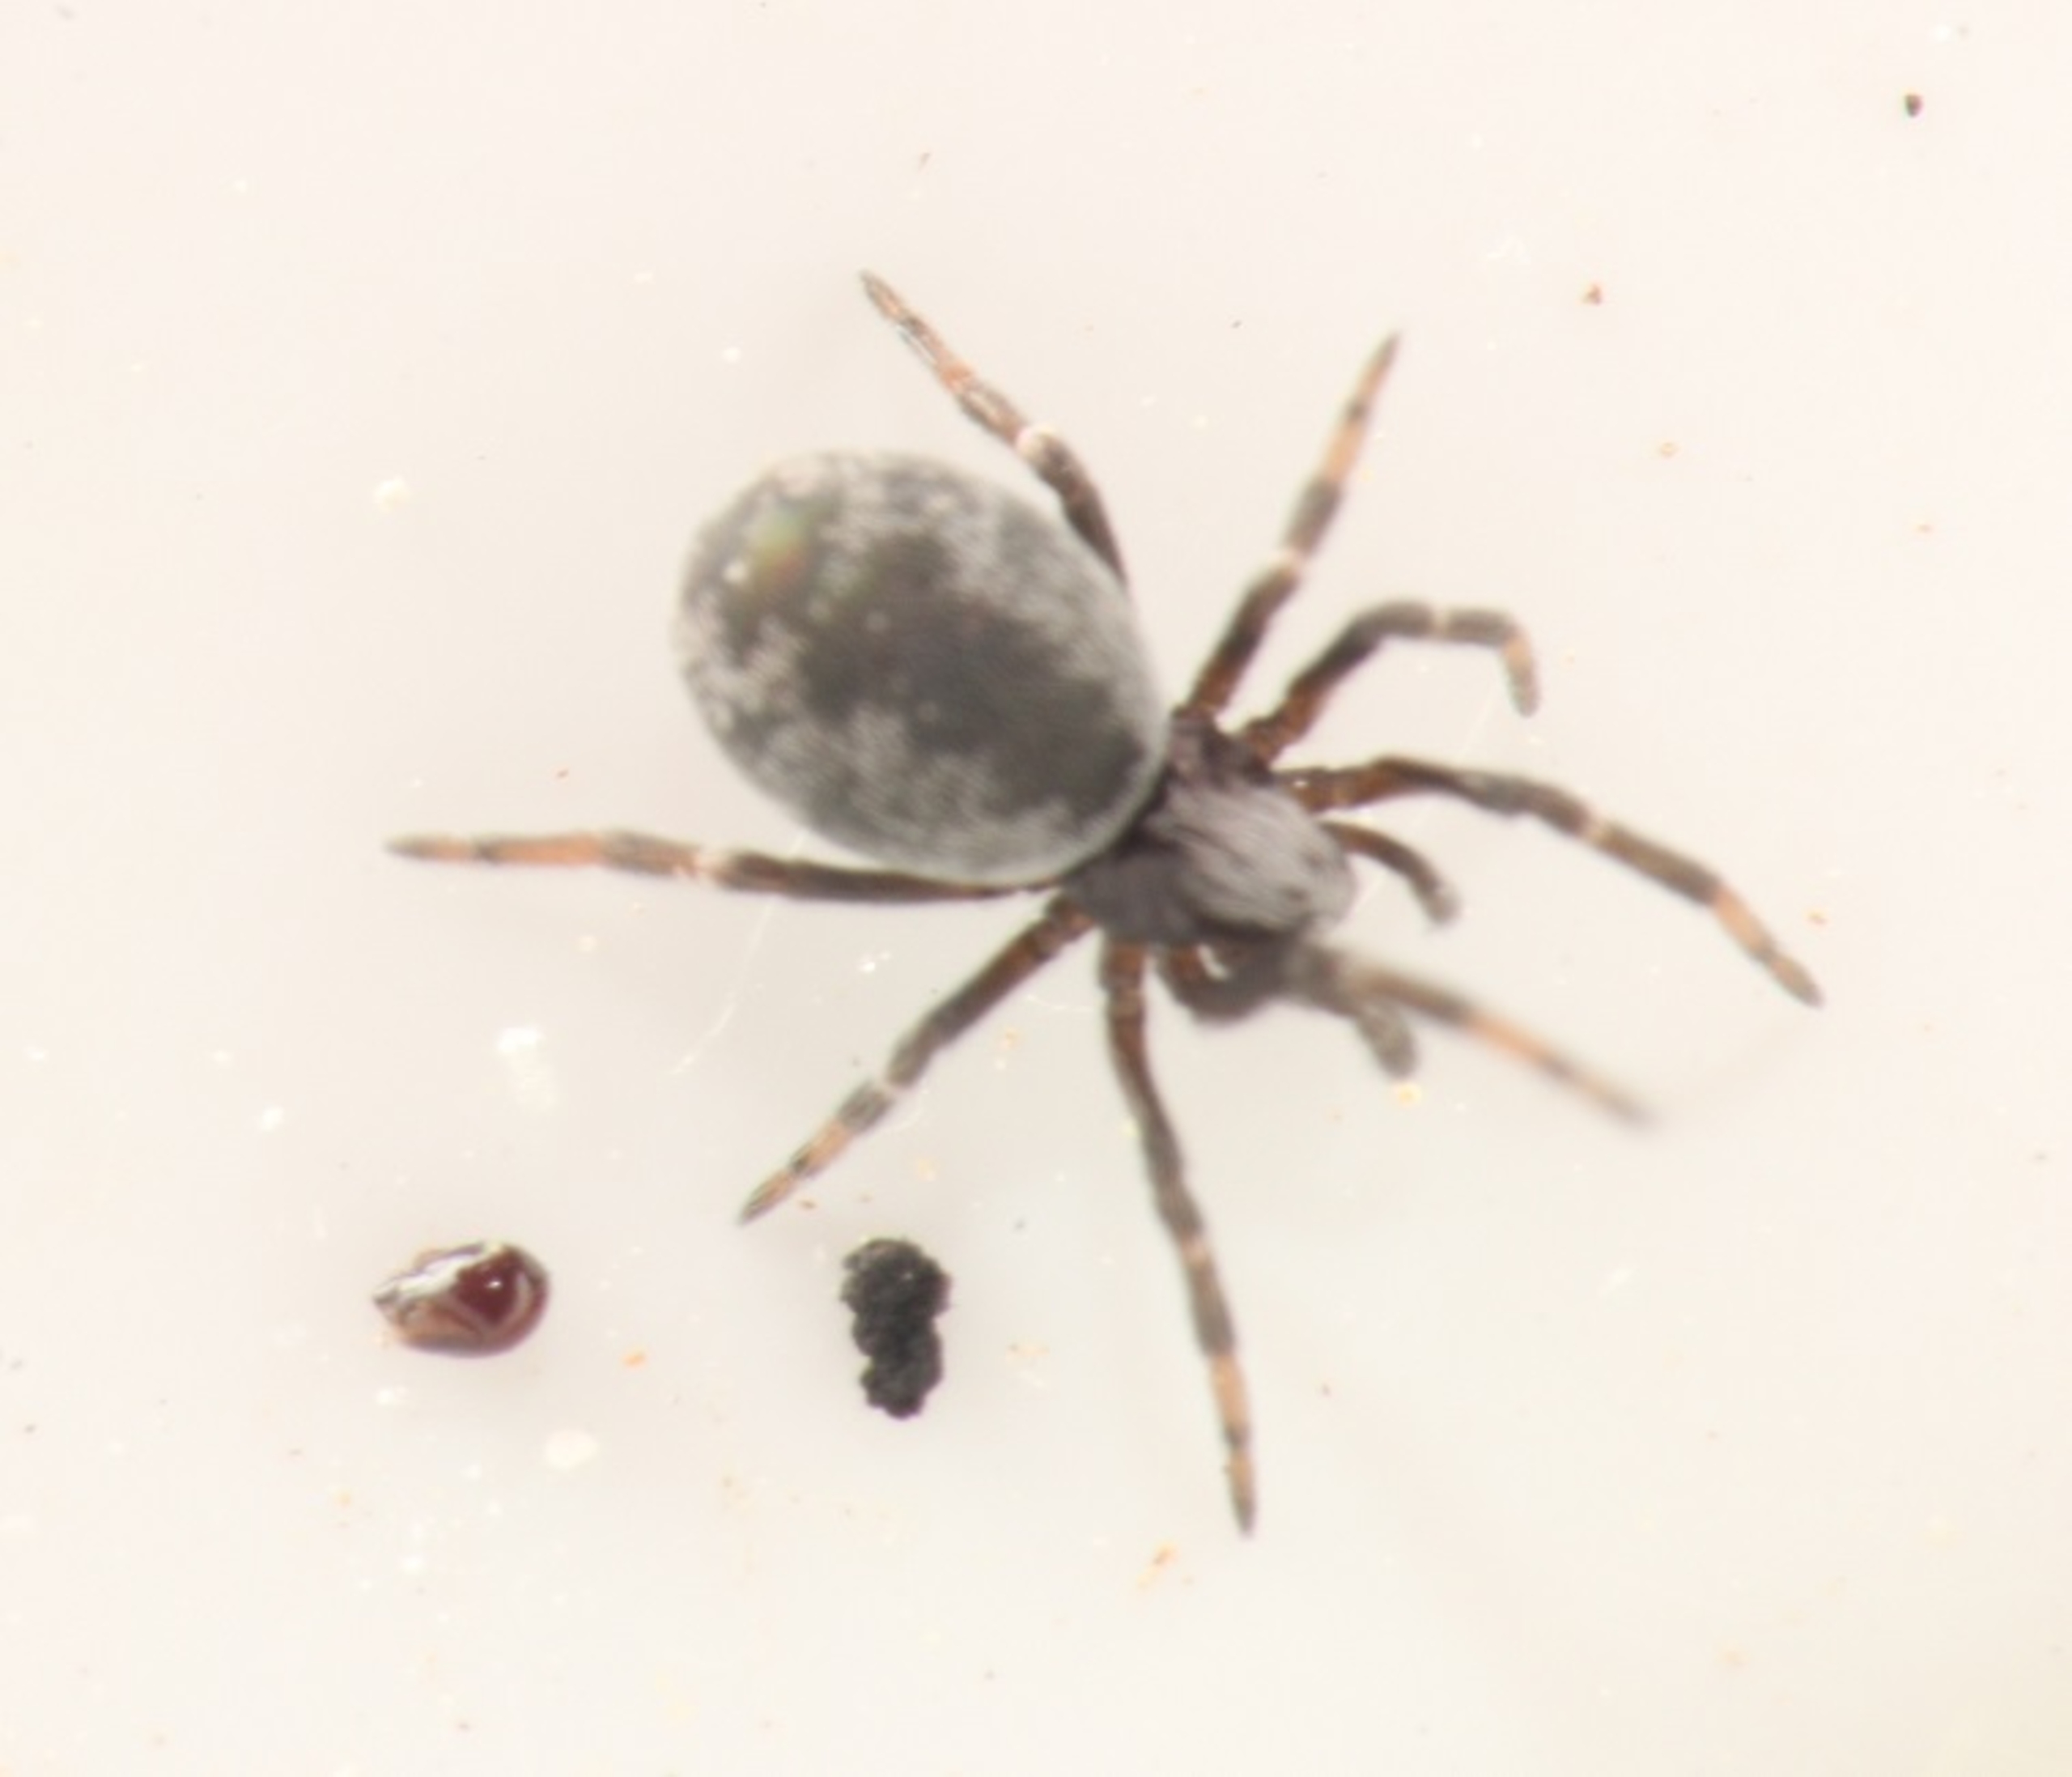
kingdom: Animalia
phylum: Arthropoda
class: Arachnida
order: Araneae
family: Dictynidae
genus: Brigittea
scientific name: Brigittea latens
